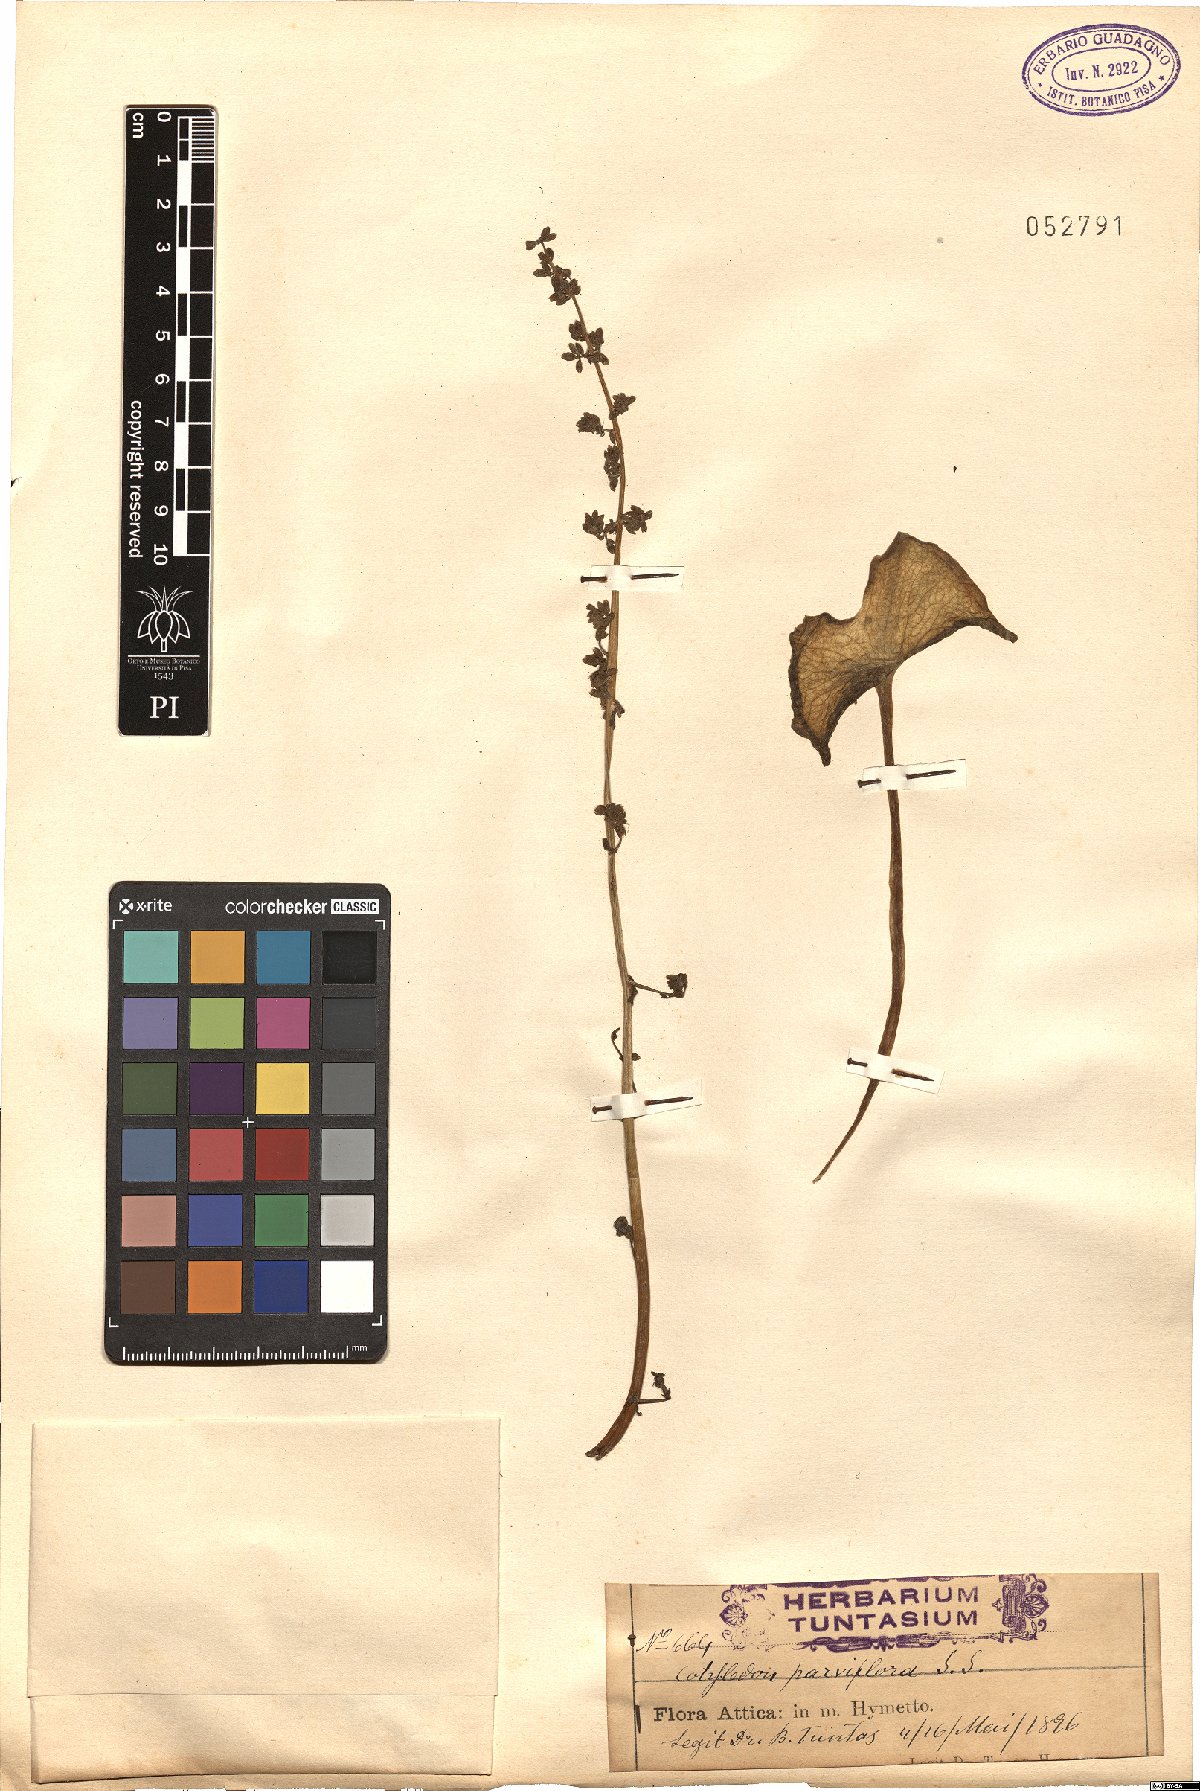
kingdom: Plantae
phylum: Tracheophyta
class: Magnoliopsida
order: Saxifragales
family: Crassulaceae
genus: Umbilicus
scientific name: Umbilicus parviflorus
